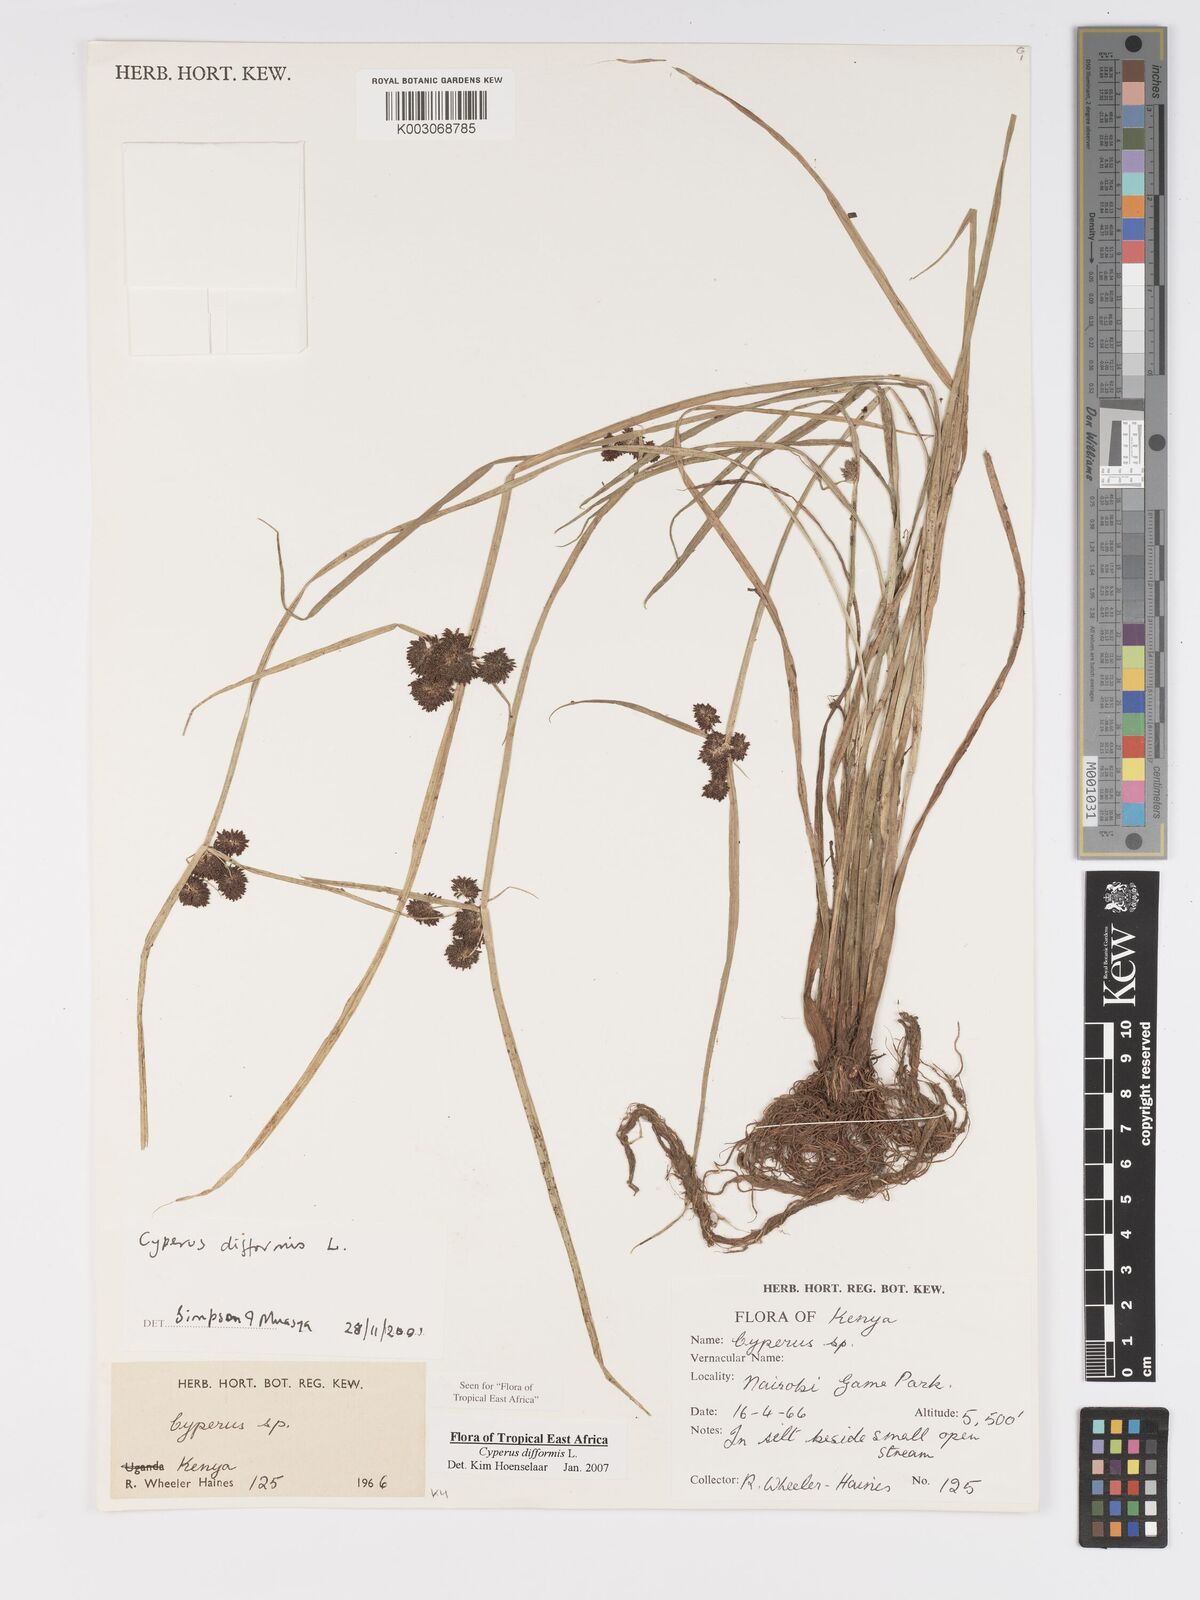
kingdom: Plantae
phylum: Tracheophyta
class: Liliopsida
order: Poales
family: Cyperaceae
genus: Cyperus
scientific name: Cyperus difformis
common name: Variable flatsedge
